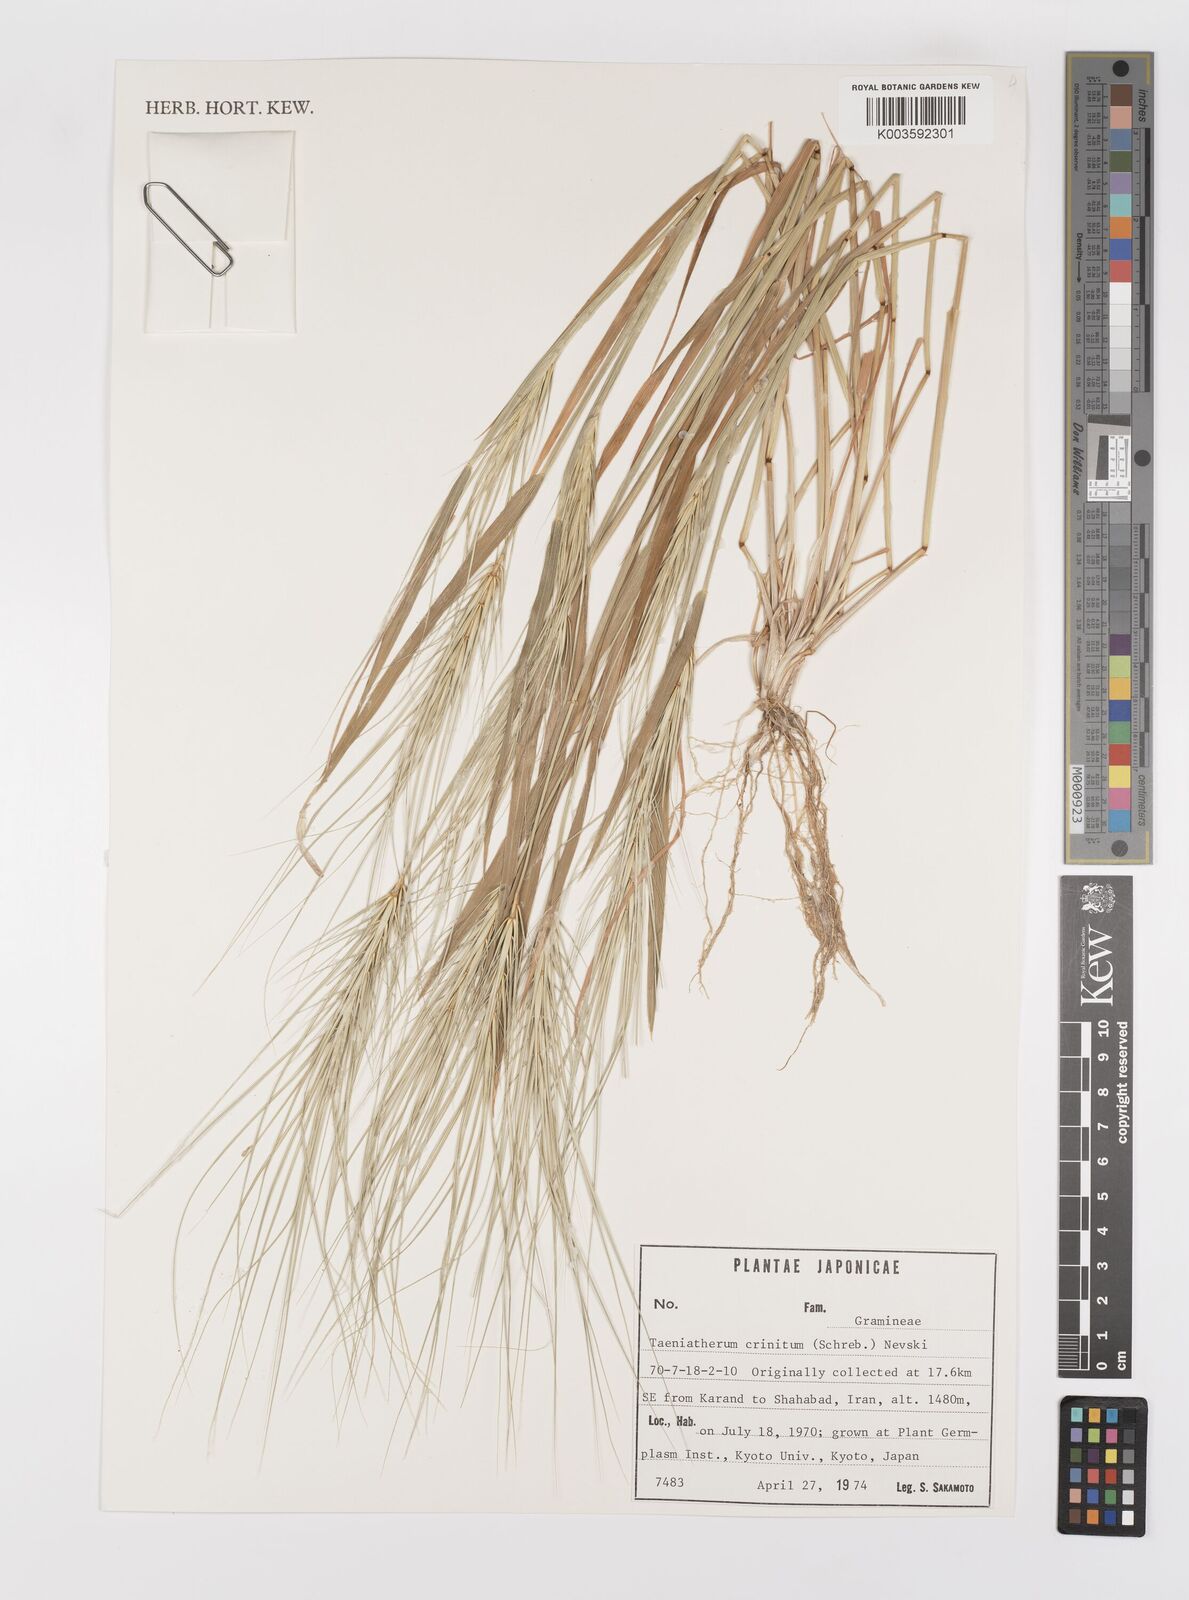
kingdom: Plantae
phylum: Tracheophyta
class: Liliopsida
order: Poales
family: Poaceae
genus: Taeniatherum
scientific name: Taeniatherum caput-medusae
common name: Medusahead
